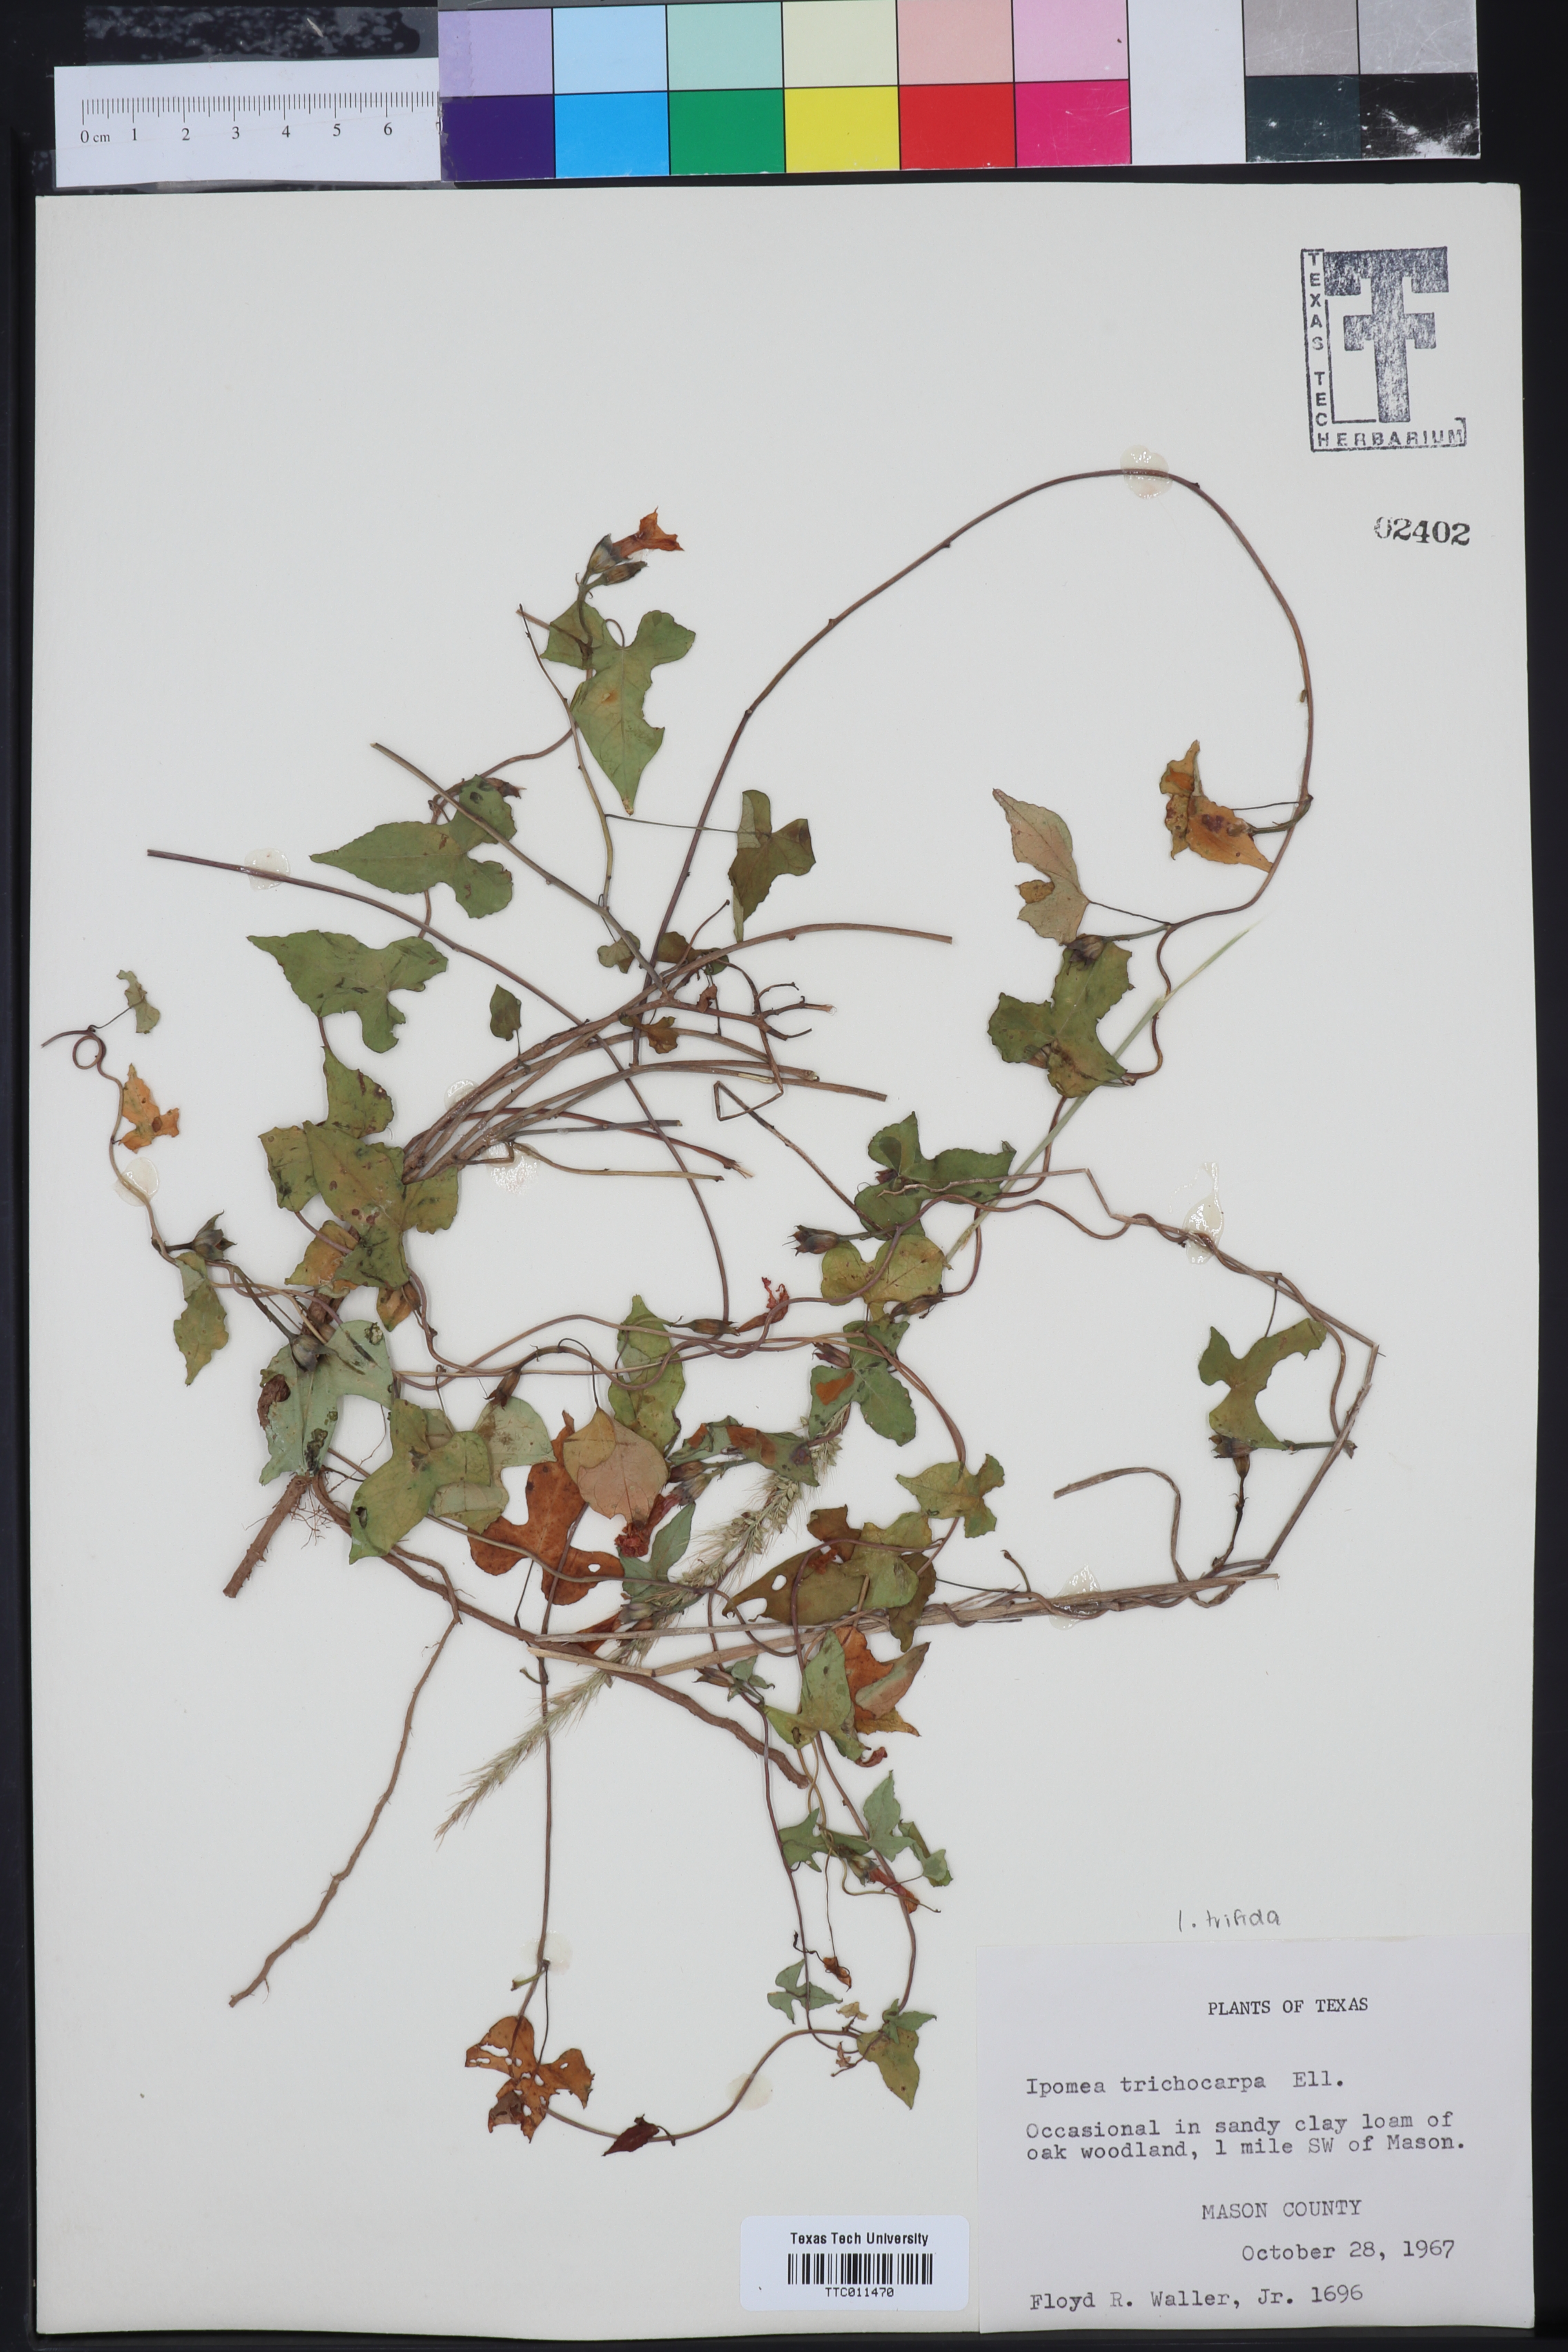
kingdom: Plantae
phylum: Tracheophyta
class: Magnoliopsida
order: Solanales
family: Convolvulaceae
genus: Ipomoea
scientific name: Ipomoea cordatotriloba
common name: Cotton morning glory
